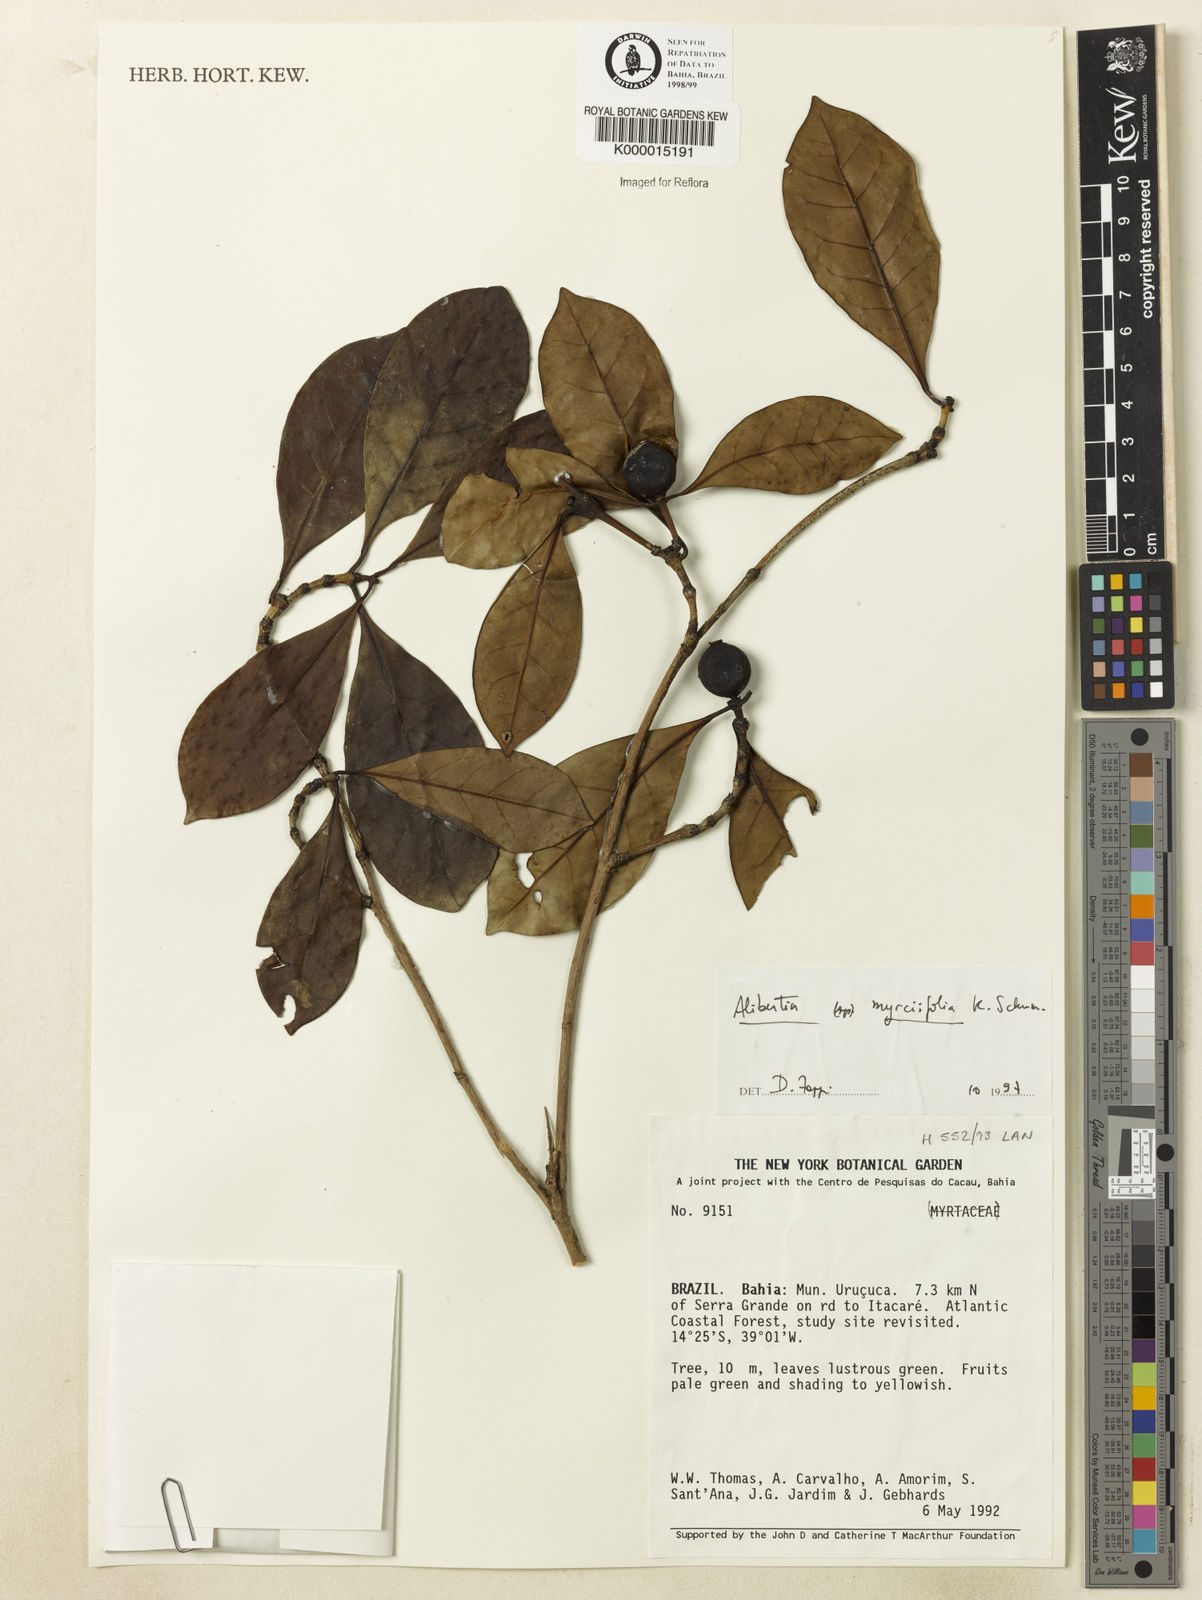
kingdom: Plantae
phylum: Tracheophyta
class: Magnoliopsida
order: Gentianales
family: Rubiaceae
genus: Cordiera
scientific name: Cordiera myrciifolia
